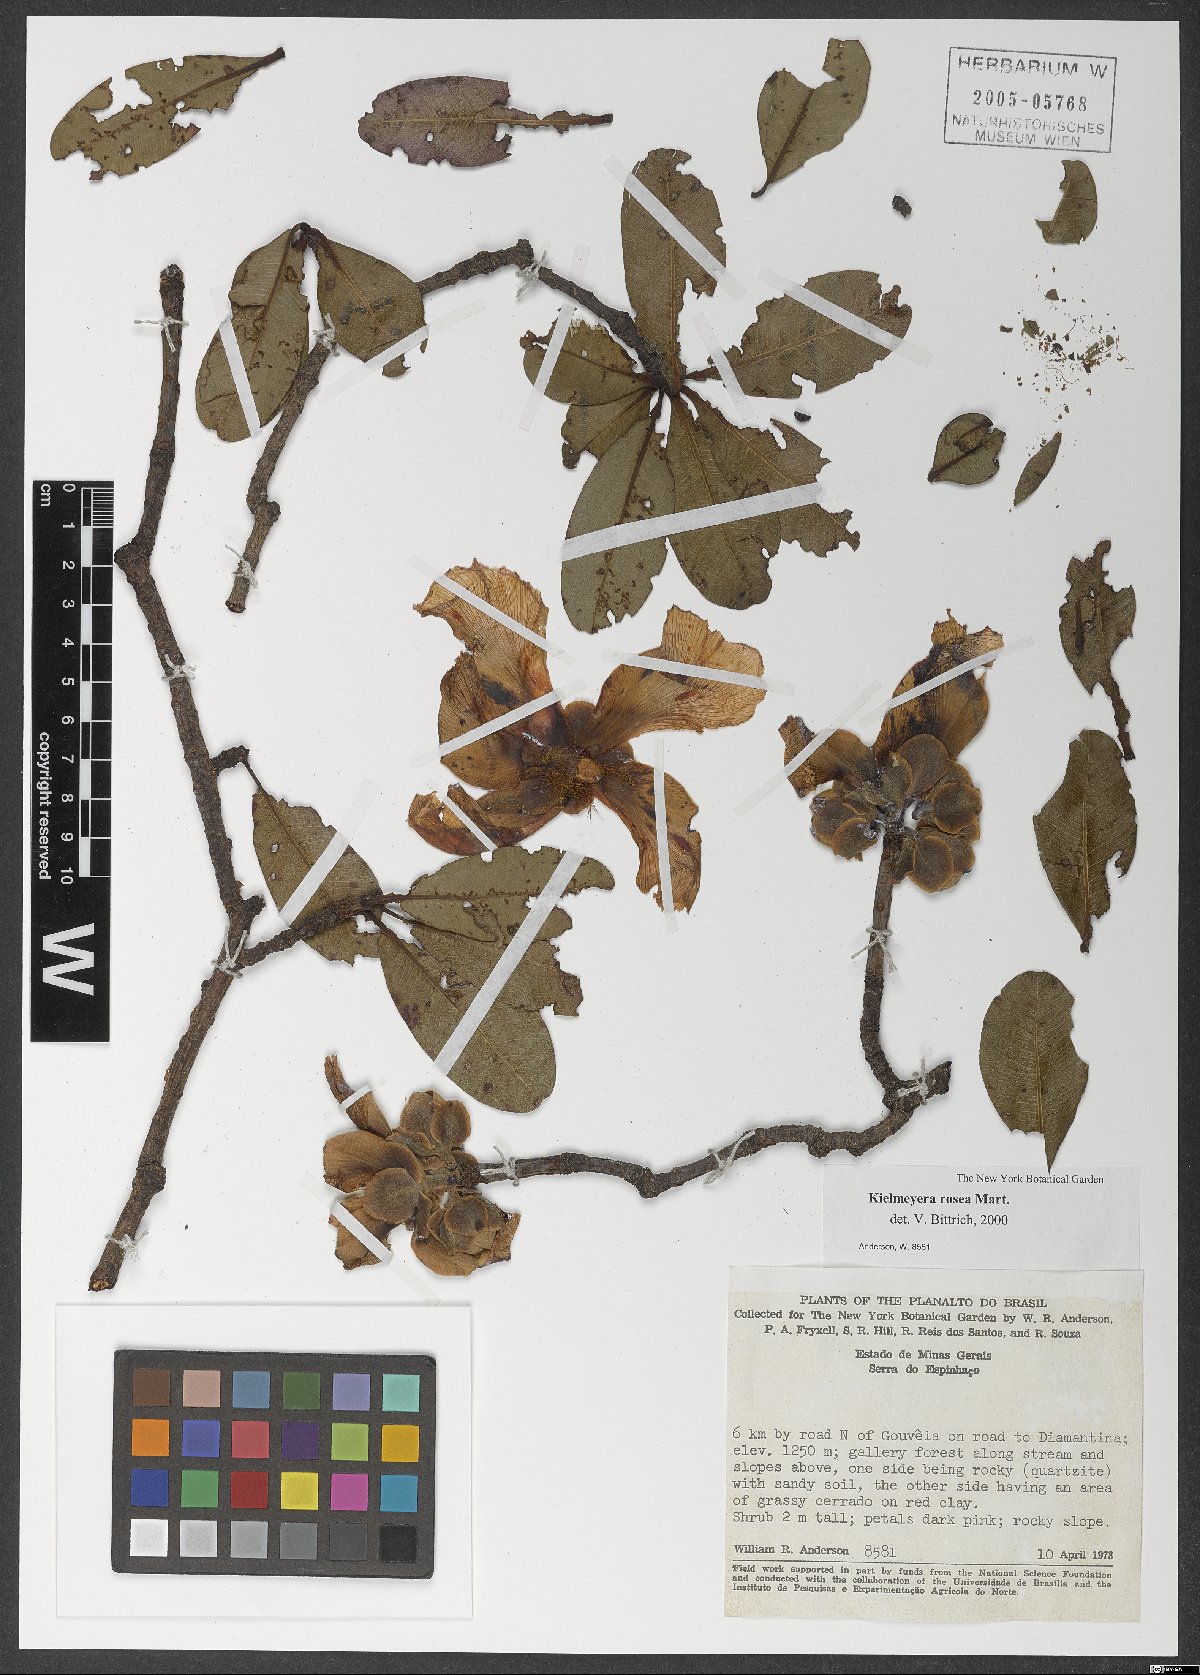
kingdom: Plantae
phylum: Tracheophyta
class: Magnoliopsida
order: Malpighiales
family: Calophyllaceae
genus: Kielmeyera
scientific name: Kielmeyera rosea
